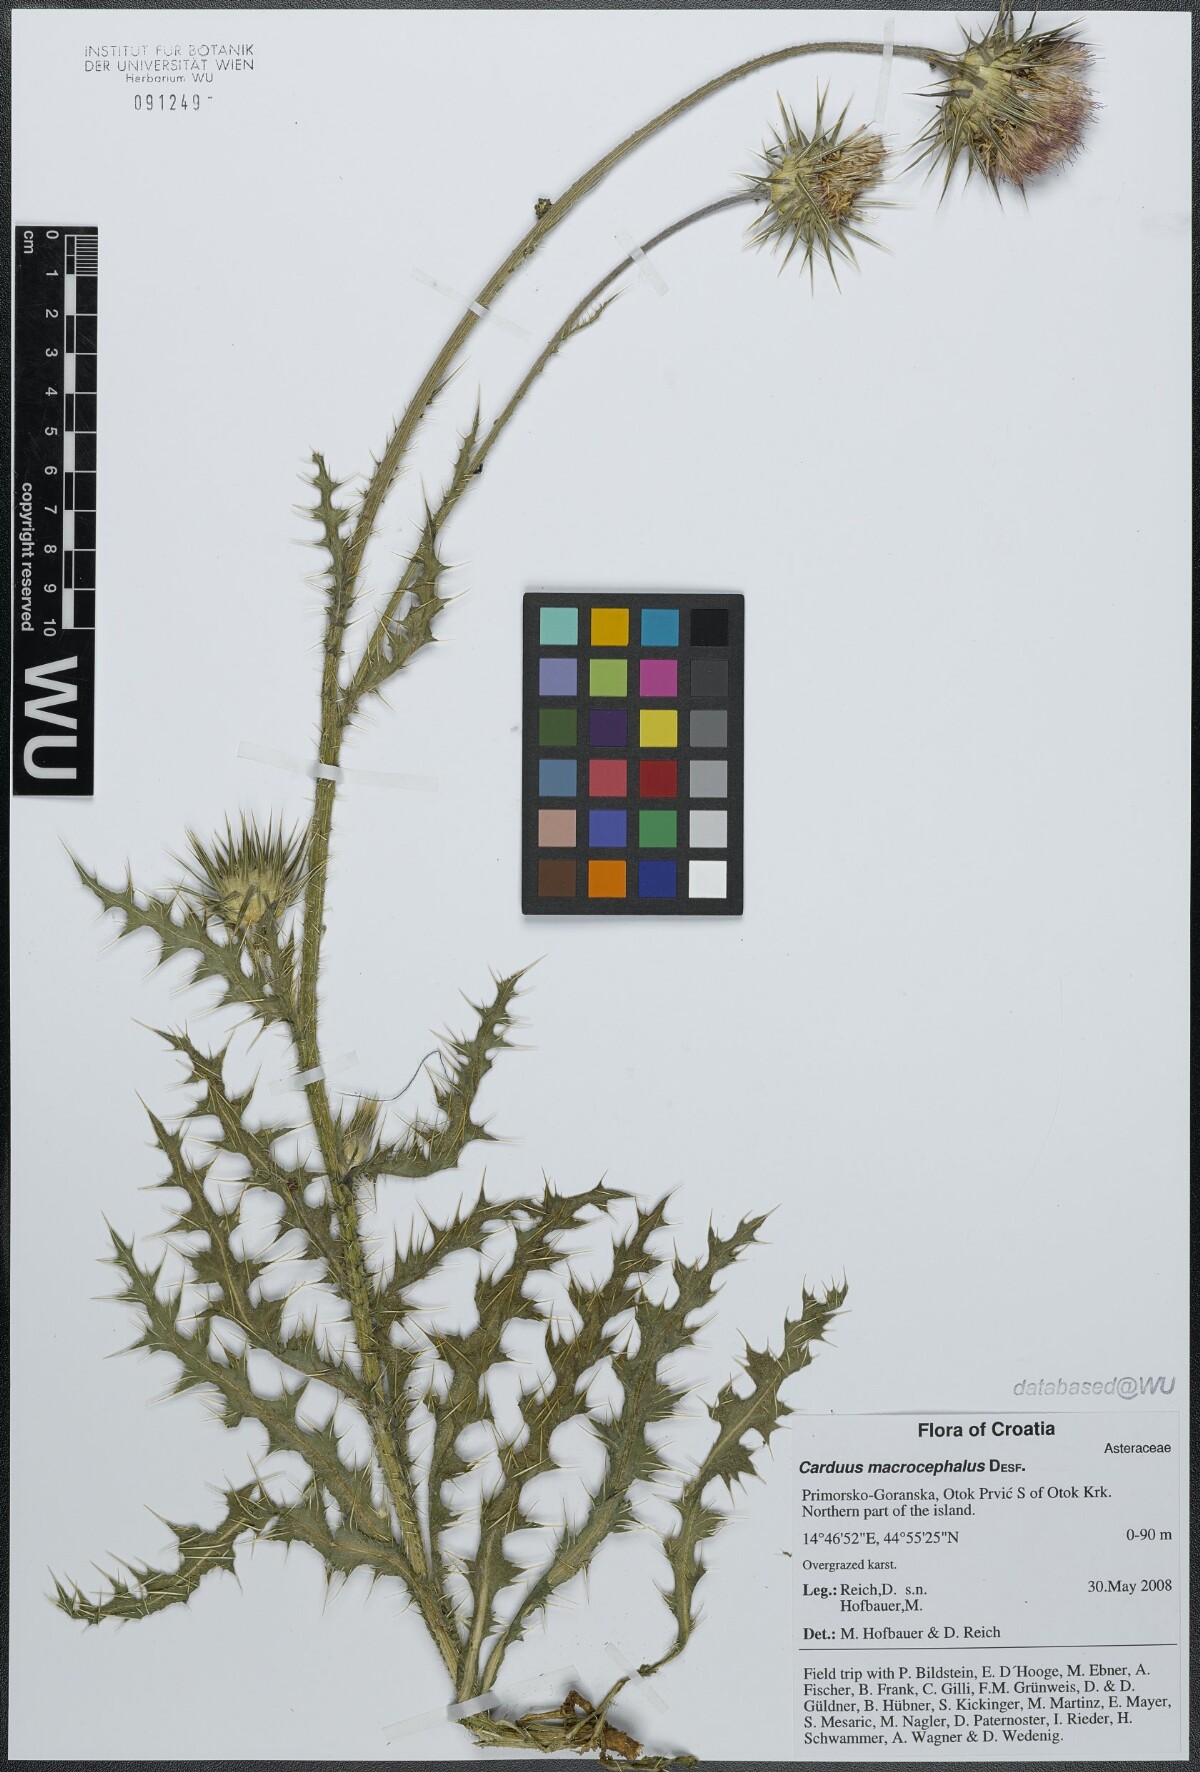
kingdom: Plantae
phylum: Tracheophyta
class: Magnoliopsida
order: Asterales
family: Asteraceae
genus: Carduus
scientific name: Carduus macrocephalus
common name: Giant thistle
